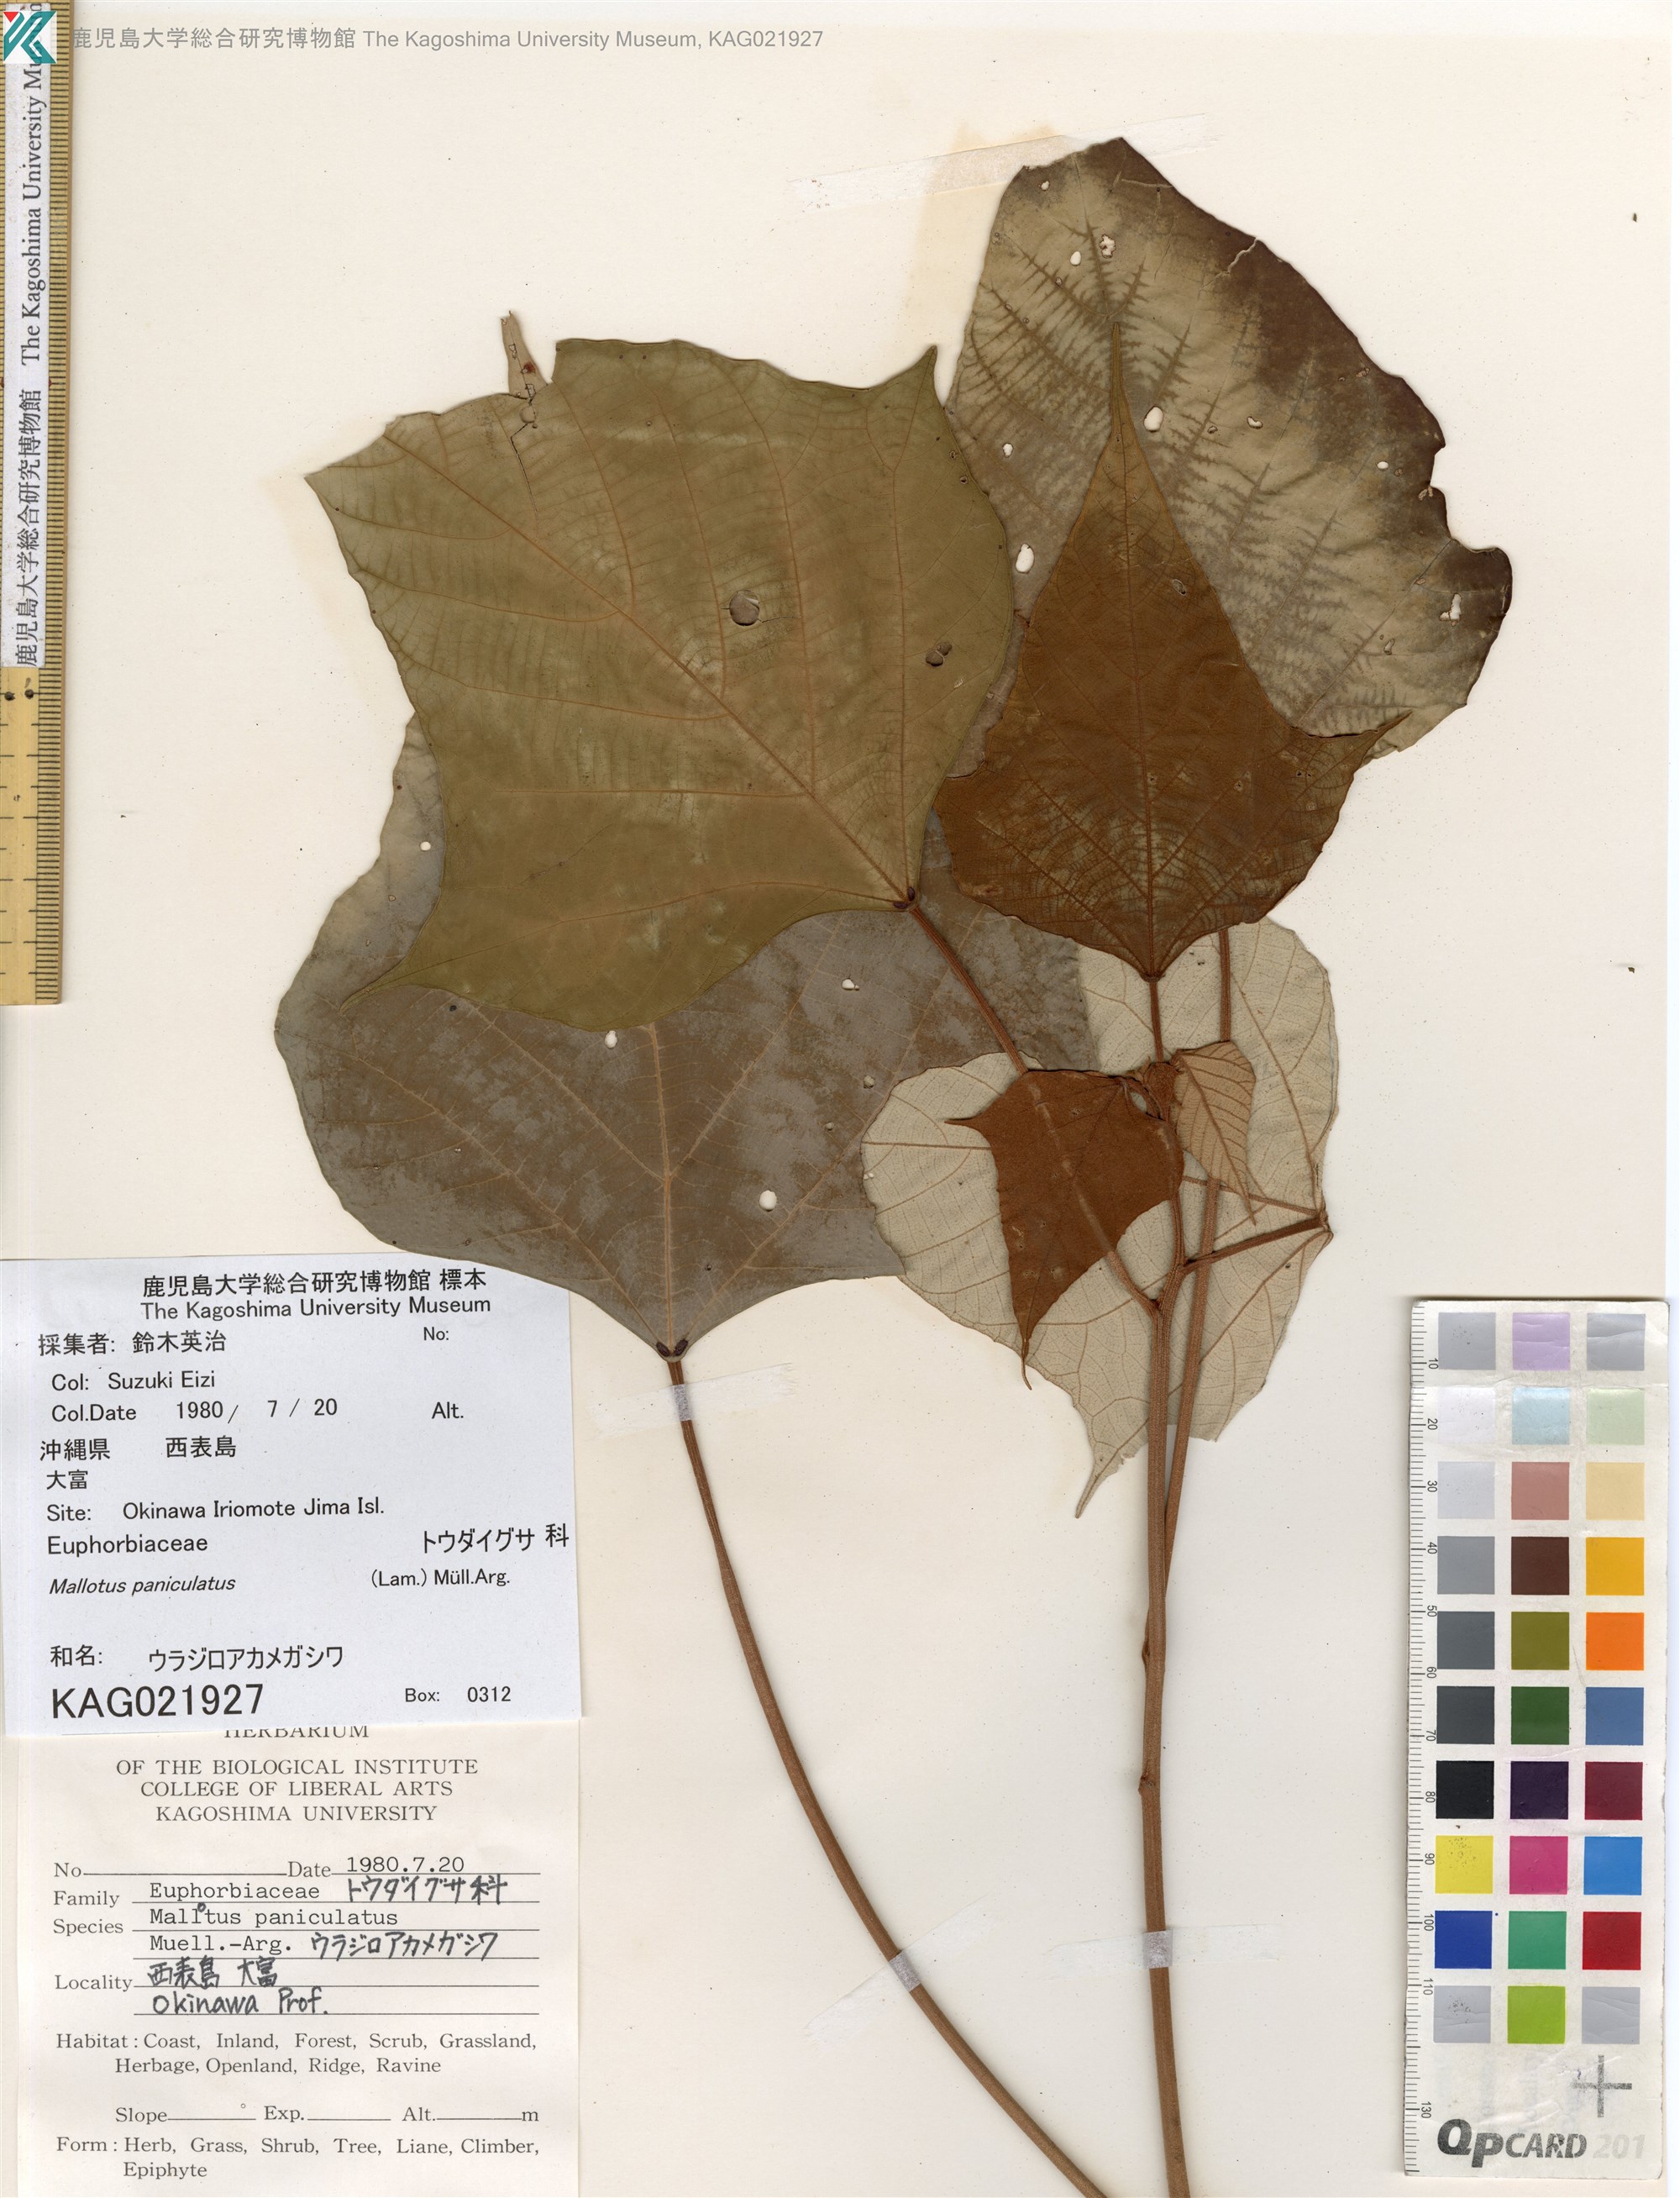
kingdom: Plantae
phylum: Tracheophyta
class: Magnoliopsida
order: Malpighiales
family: Euphorbiaceae
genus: Mallotus
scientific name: Mallotus paniculatus
